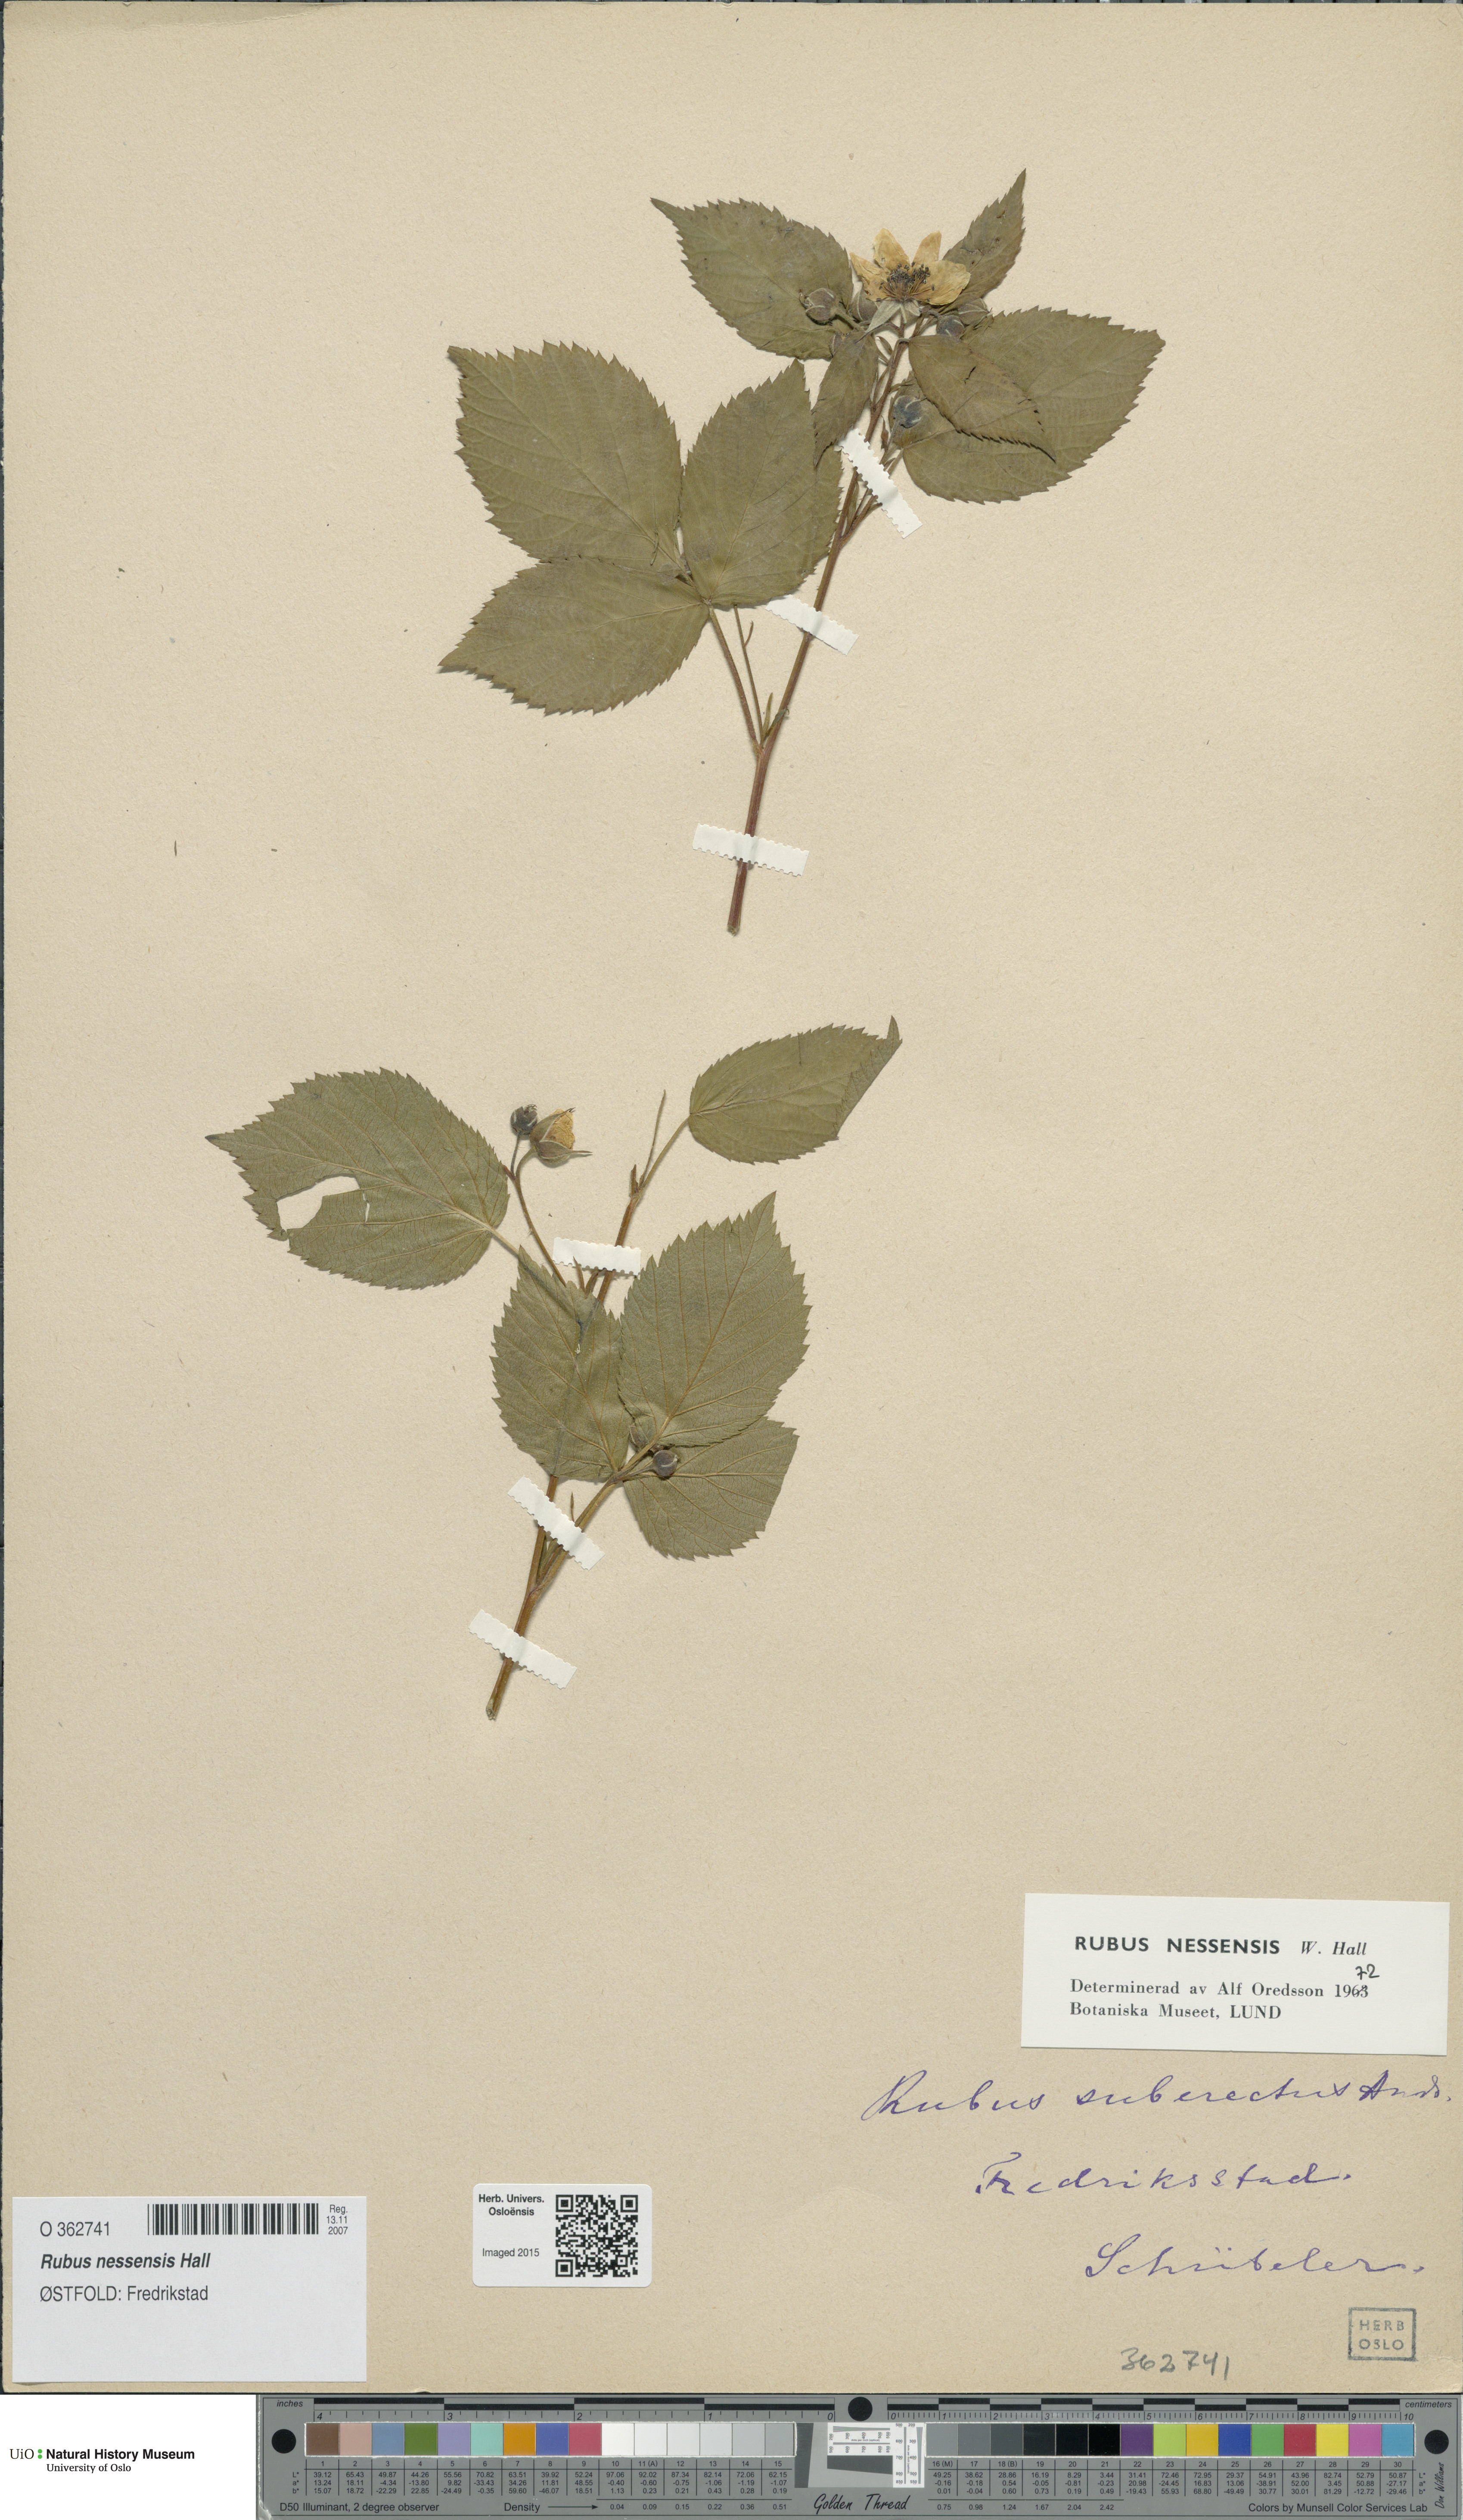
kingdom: Plantae
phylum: Tracheophyta
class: Magnoliopsida
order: Rosales
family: Rosaceae
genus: Rubus
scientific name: Rubus polonicus
